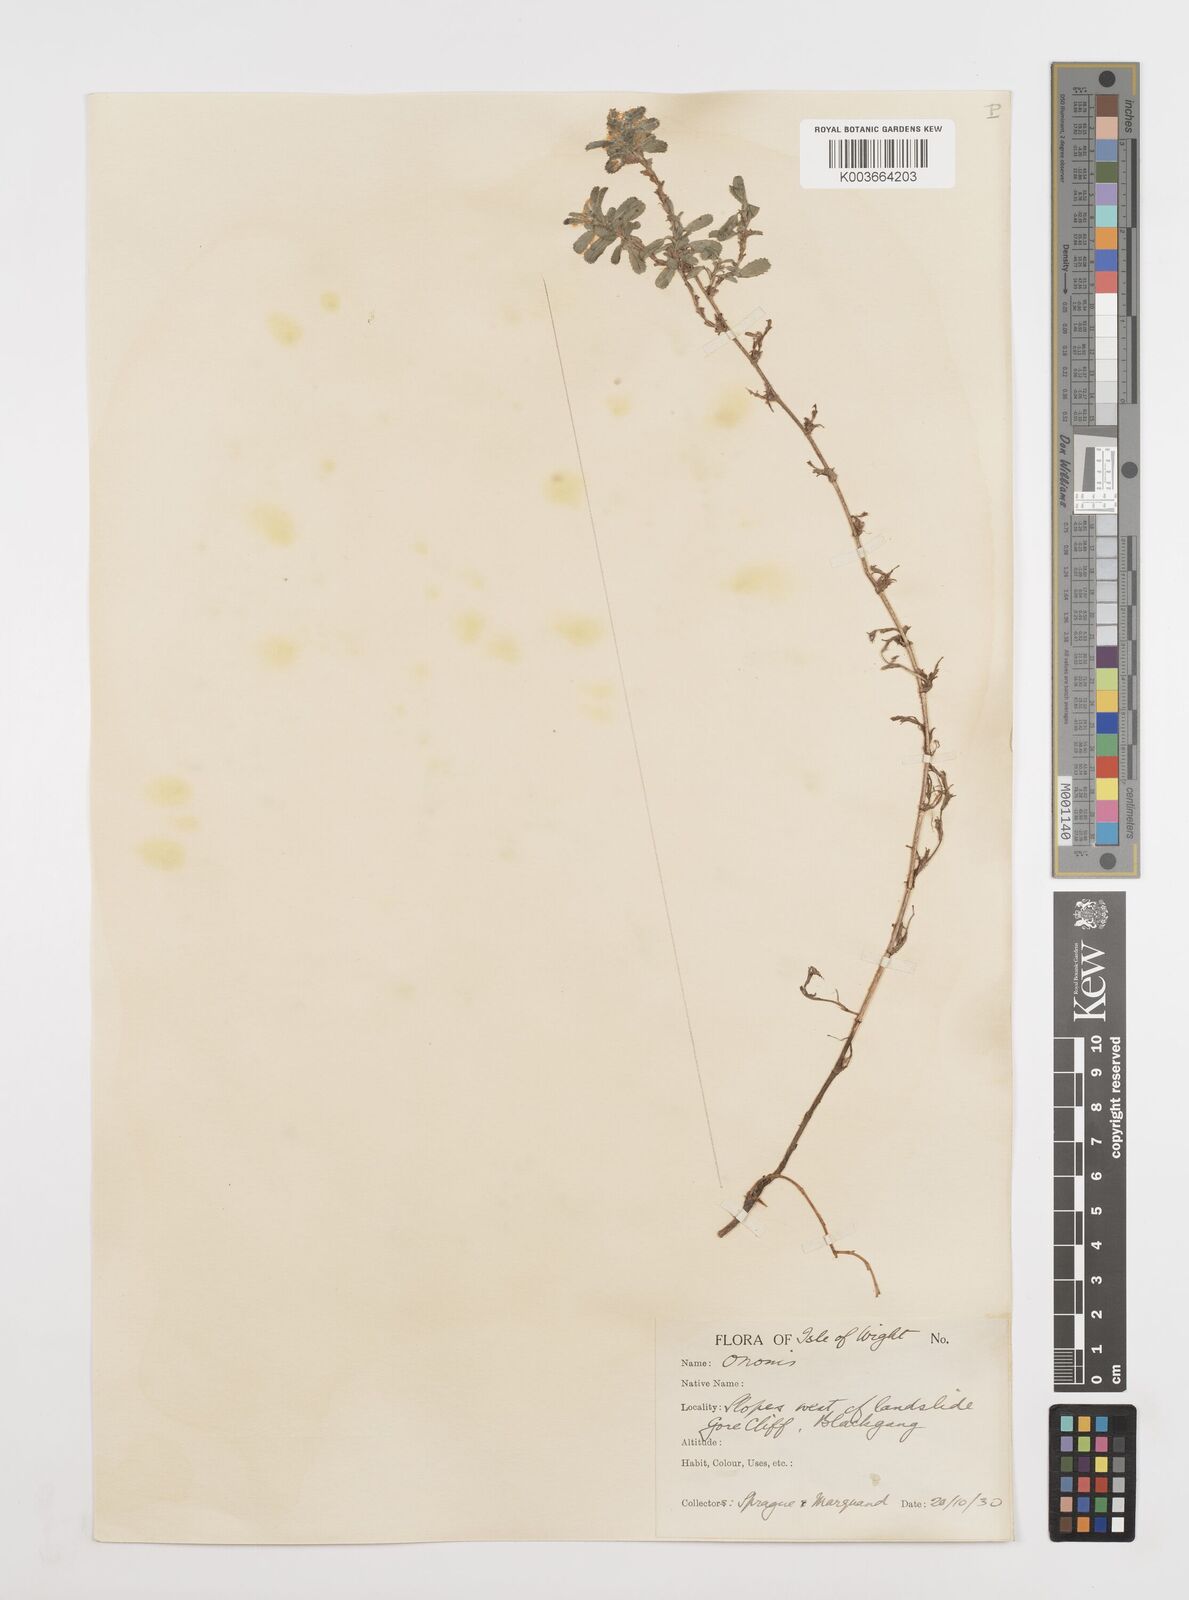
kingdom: Plantae
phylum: Tracheophyta
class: Magnoliopsida
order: Fabales
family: Fabaceae
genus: Ononis
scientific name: Ononis spinosa
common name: Spiny restharrow
